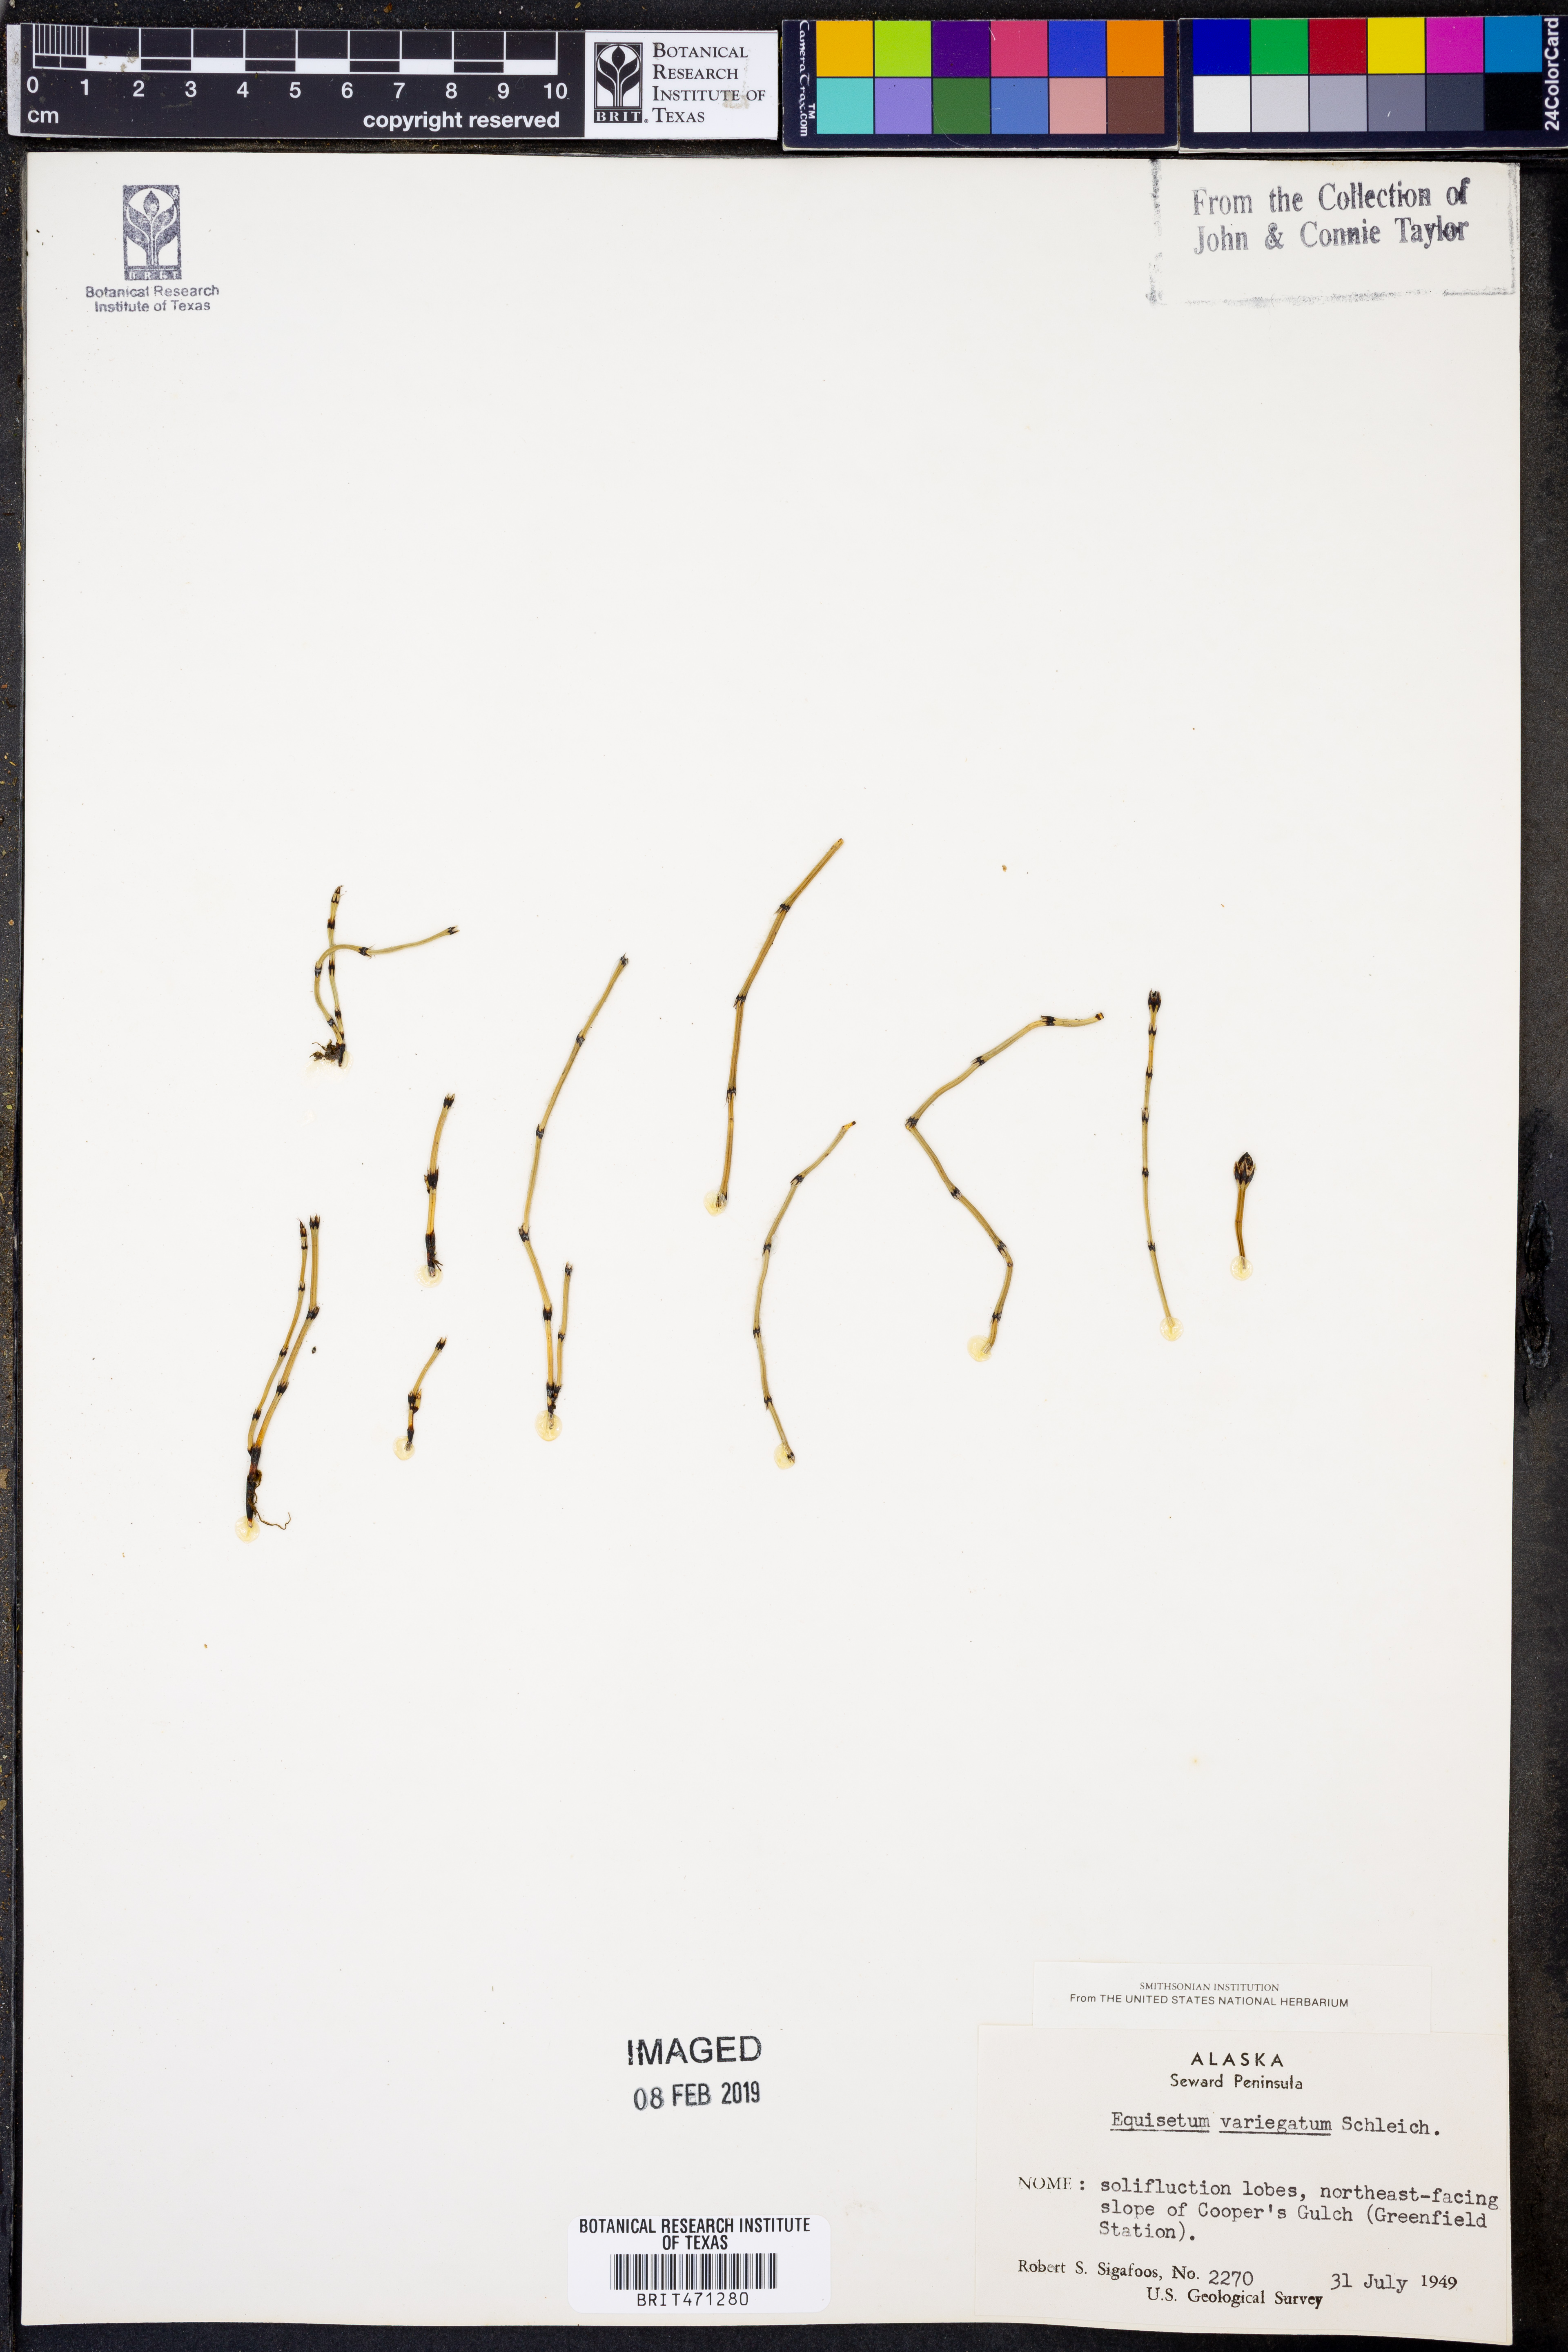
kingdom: Plantae
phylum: Tracheophyta
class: Polypodiopsida
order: Equisetales
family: Equisetaceae
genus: Equisetum
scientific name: Equisetum variegatum
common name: Variegated horsetail
